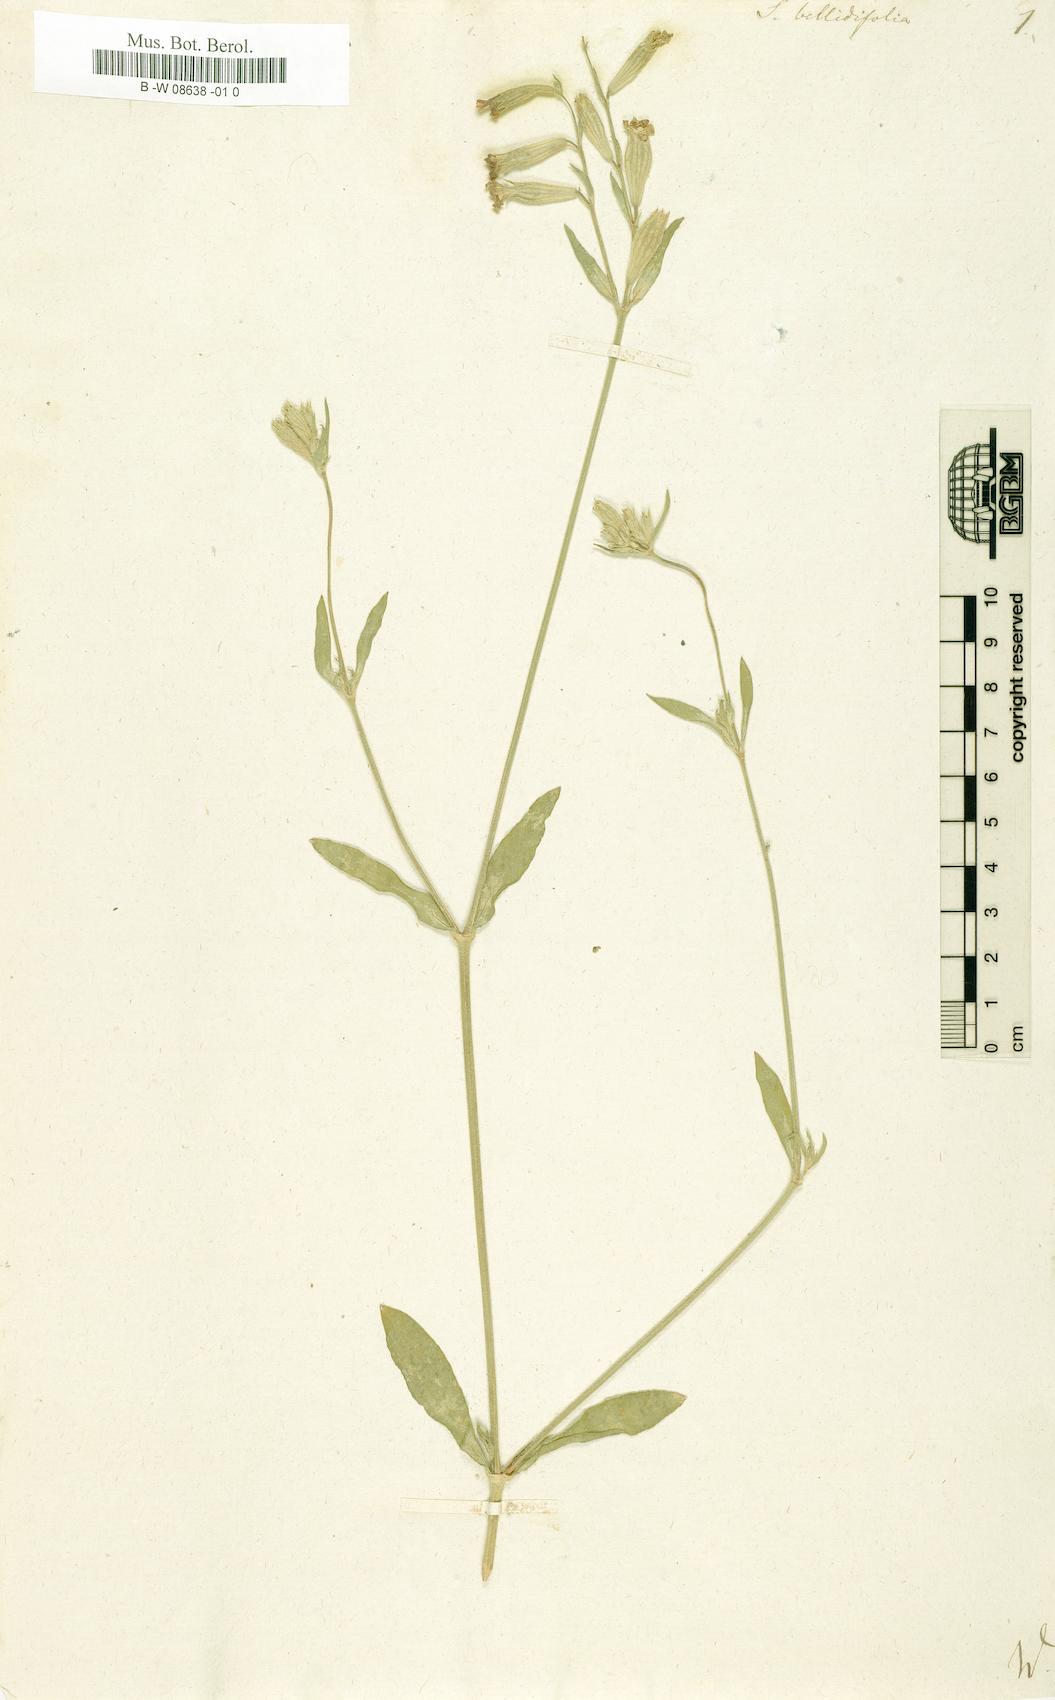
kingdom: Plantae
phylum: Tracheophyta
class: Magnoliopsida
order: Caryophyllales
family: Caryophyllaceae
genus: Silene
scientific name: Silene bellidifolia
